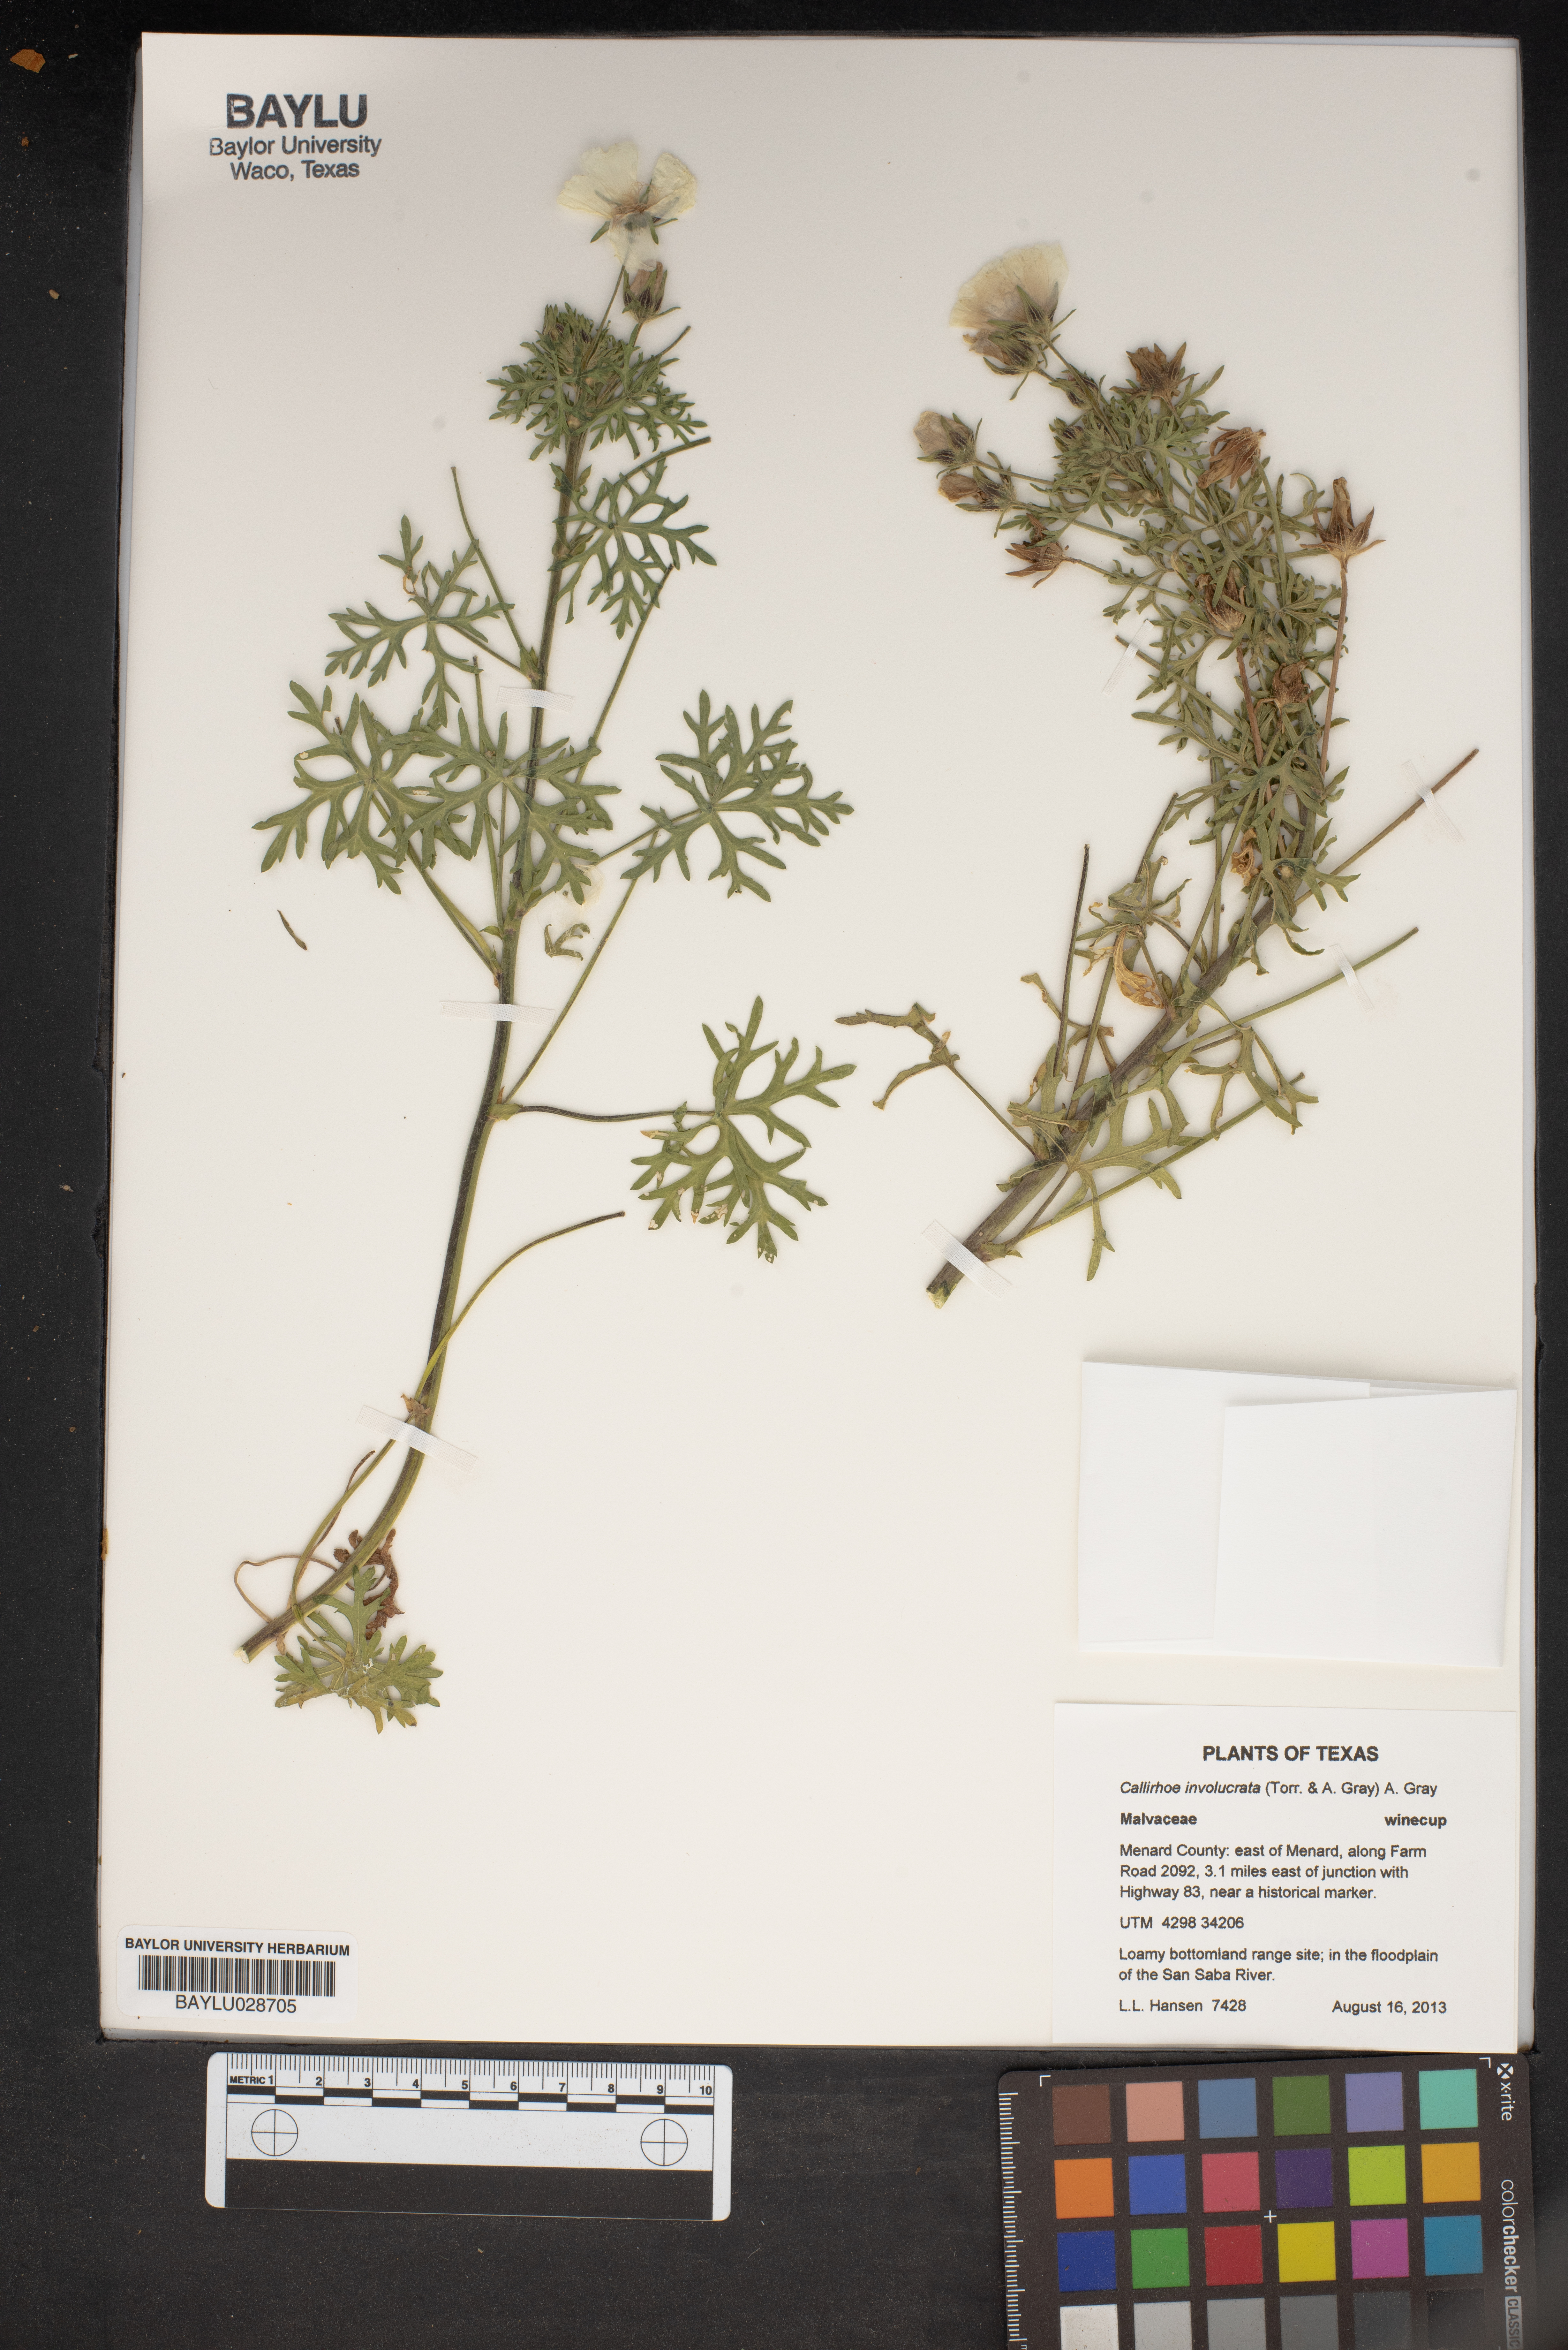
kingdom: Plantae
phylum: Tracheophyta
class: Magnoliopsida
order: Malvales
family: Malvaceae
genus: Callirhoe
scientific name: Callirhoe involucrata
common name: Purple poppy-mallow
